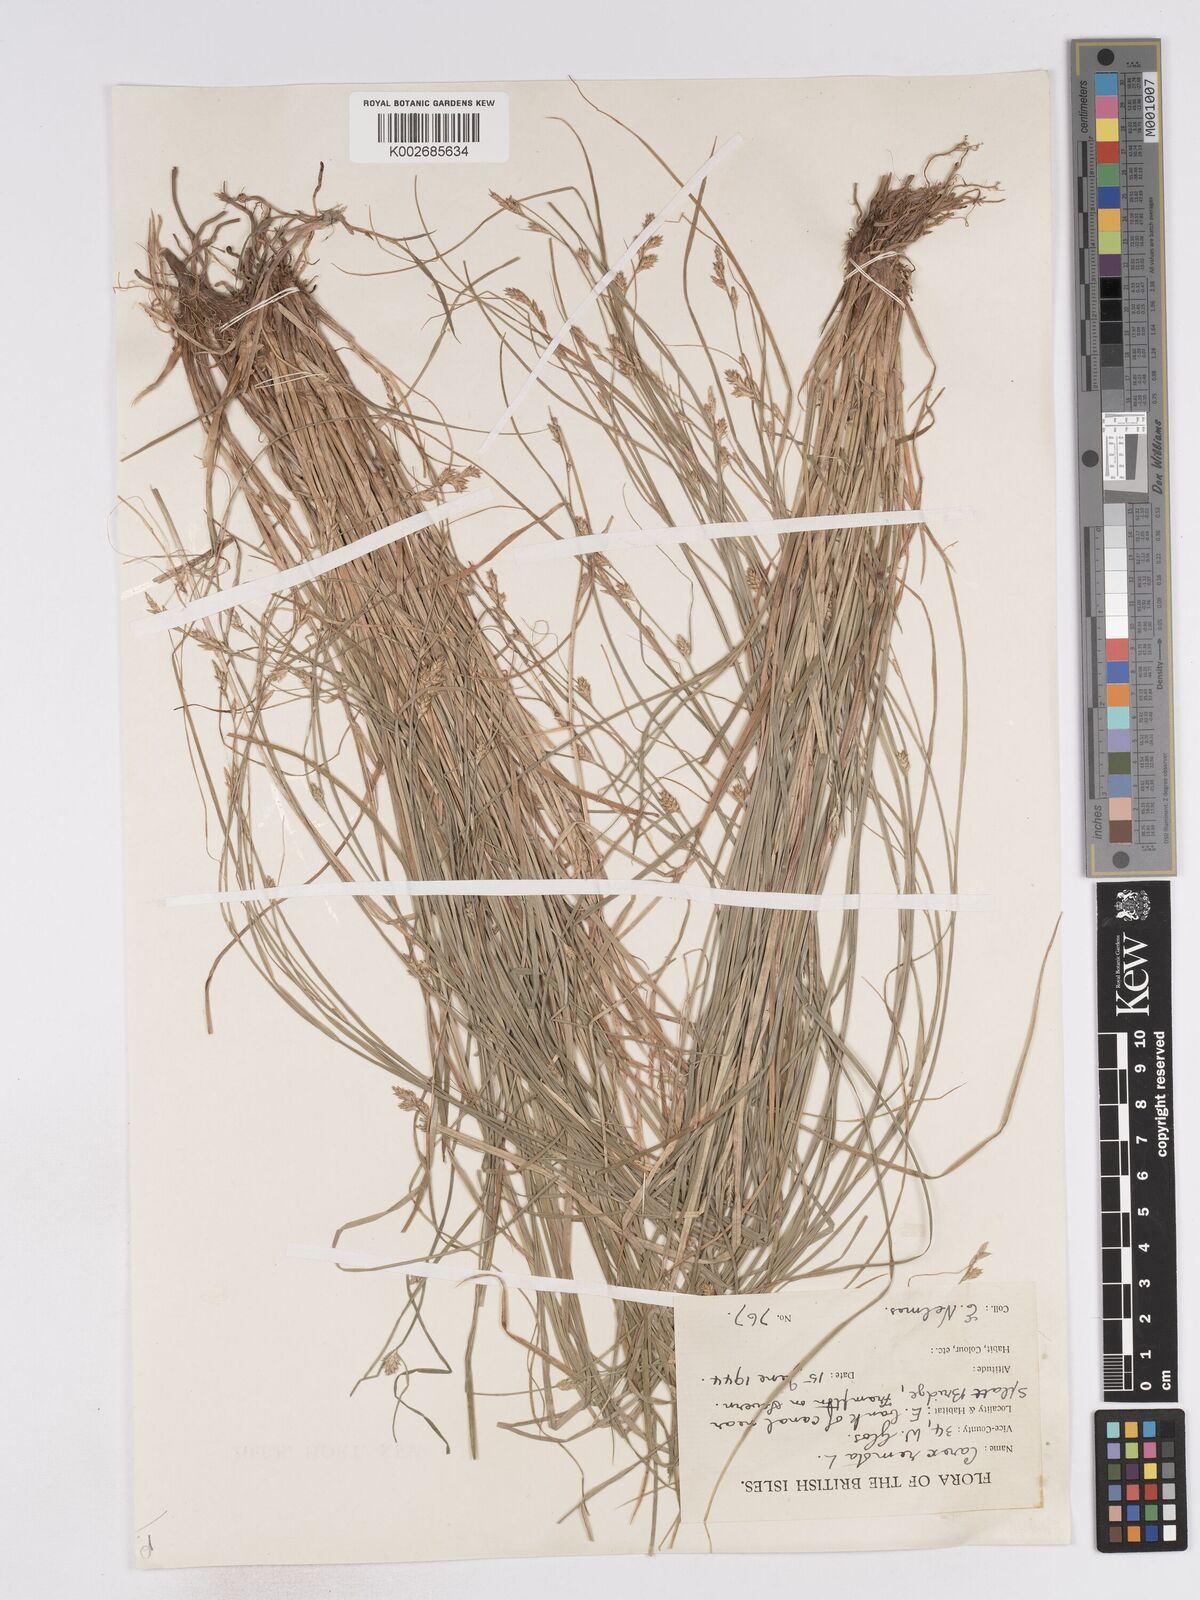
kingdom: Plantae
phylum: Tracheophyta
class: Liliopsida
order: Poales
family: Cyperaceae
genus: Carex
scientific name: Carex remota
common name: Remote sedge
